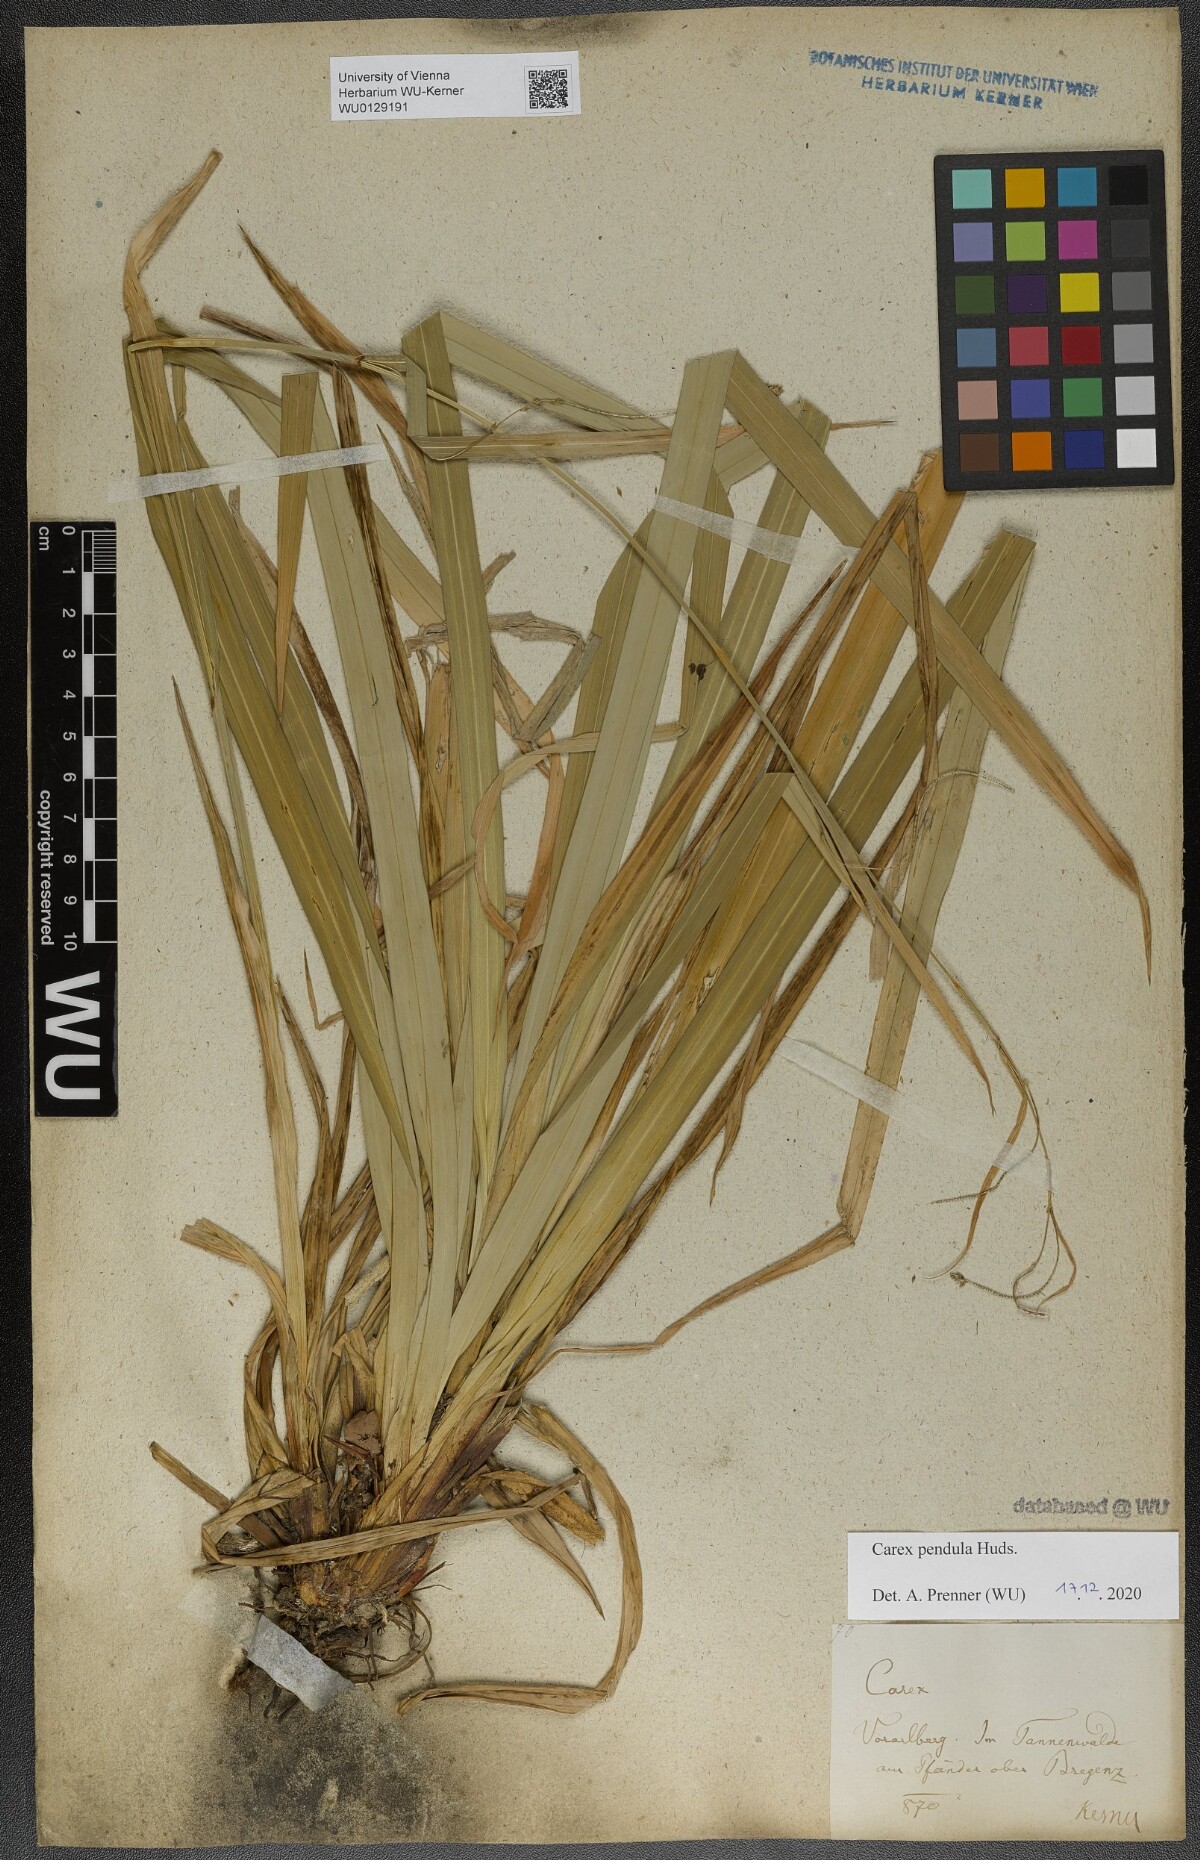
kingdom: Plantae
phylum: Tracheophyta
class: Liliopsida
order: Poales
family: Cyperaceae
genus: Carex
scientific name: Carex pendula
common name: Pendulous sedge
